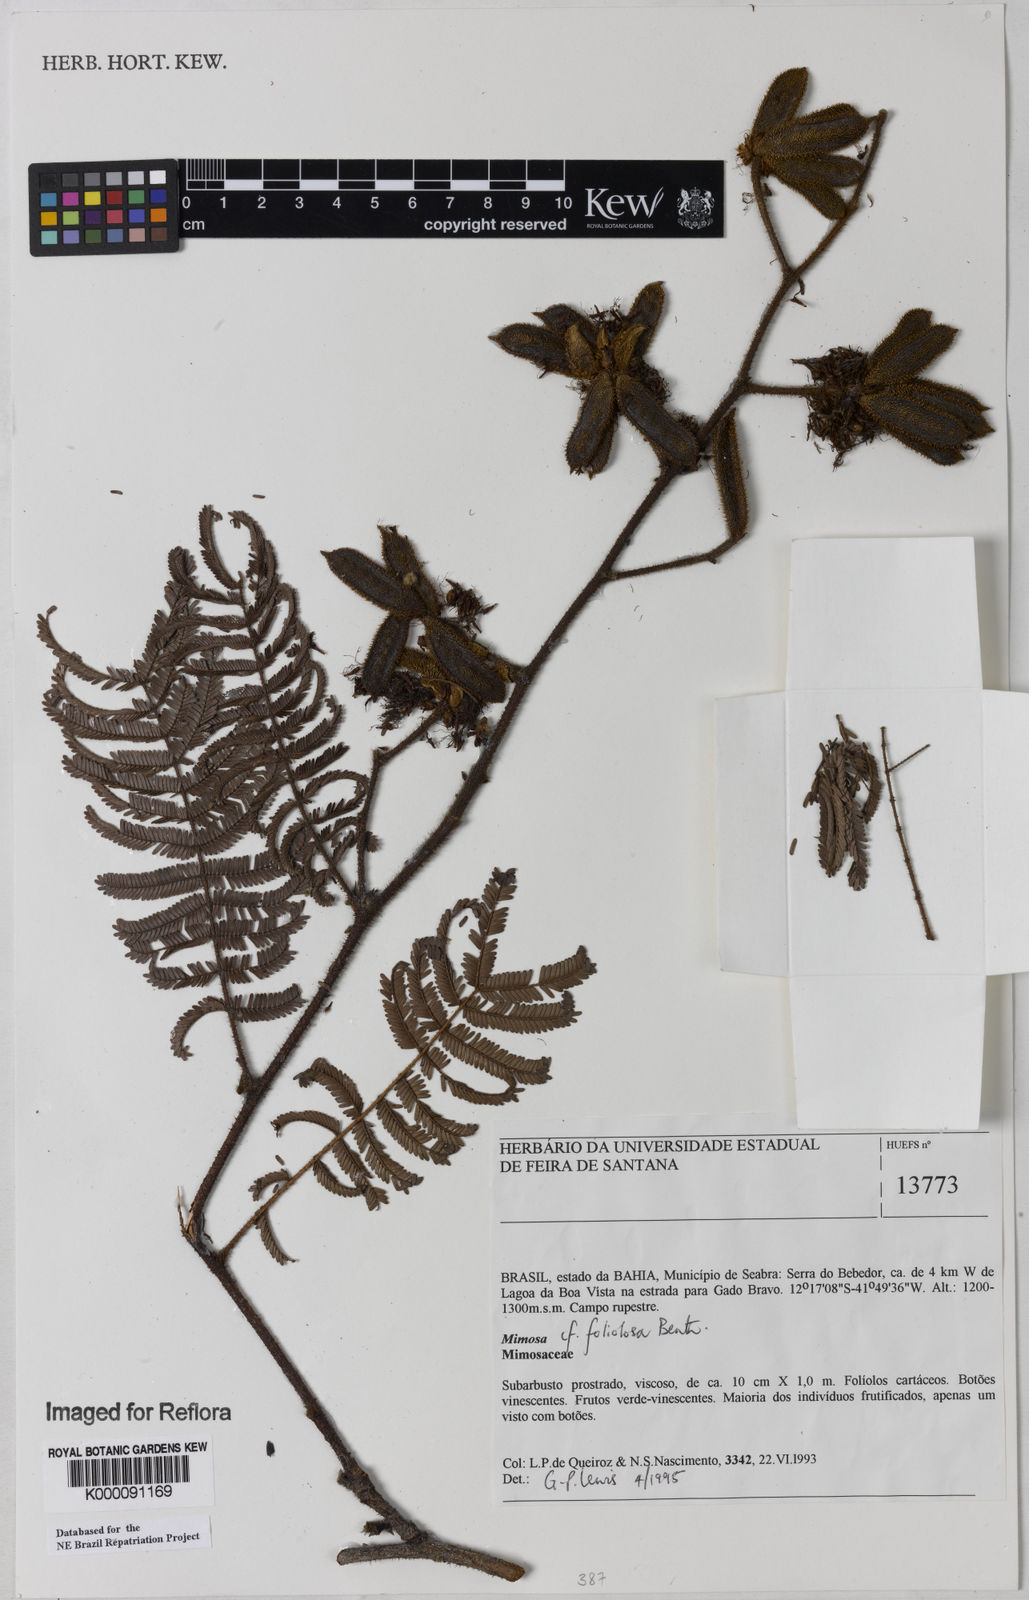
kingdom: Plantae
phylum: Tracheophyta
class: Magnoliopsida
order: Fabales
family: Fabaceae
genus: Mimosa
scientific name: Mimosa foliolosa
